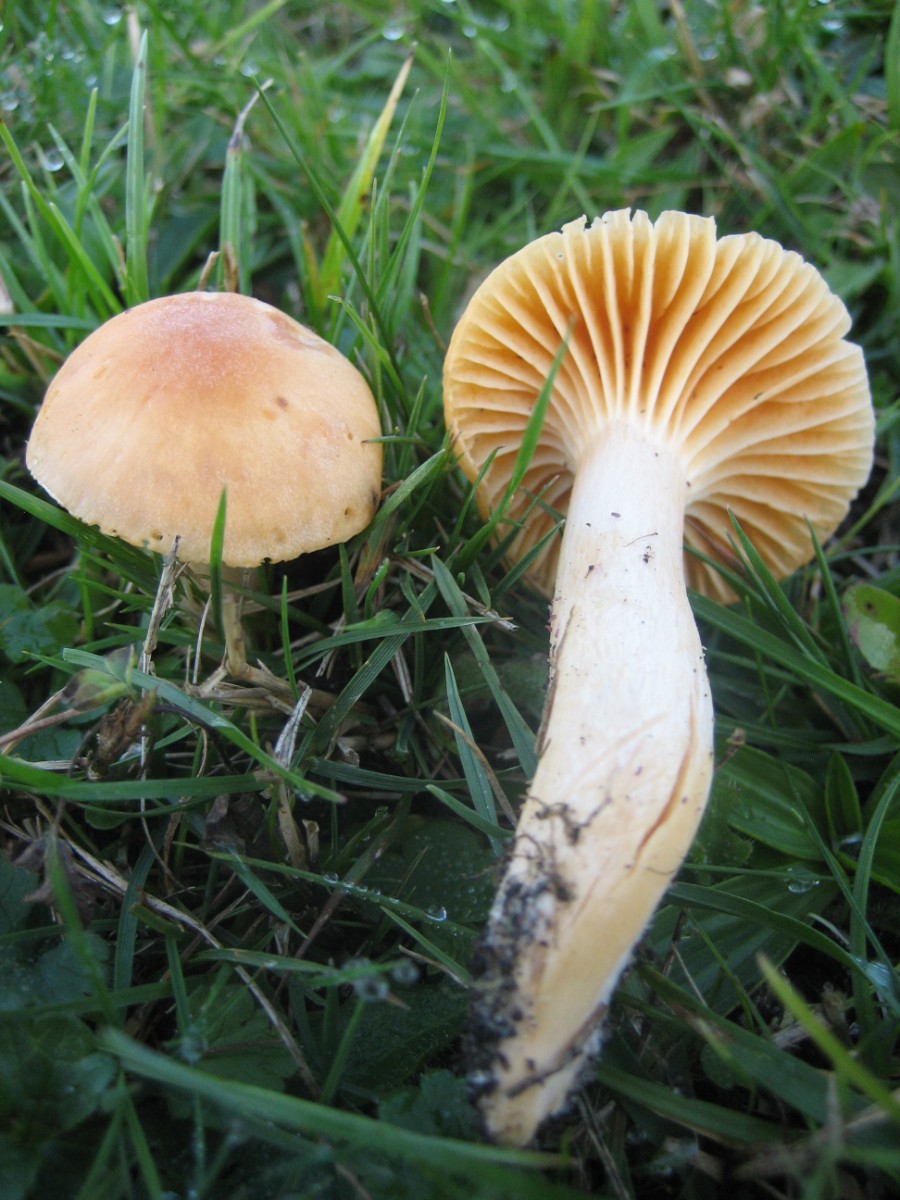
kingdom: Fungi
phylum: Basidiomycota
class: Agaricomycetes
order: Agaricales
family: Hygrophoraceae
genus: Cuphophyllus
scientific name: Cuphophyllus pratensis
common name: eng-vokshat
